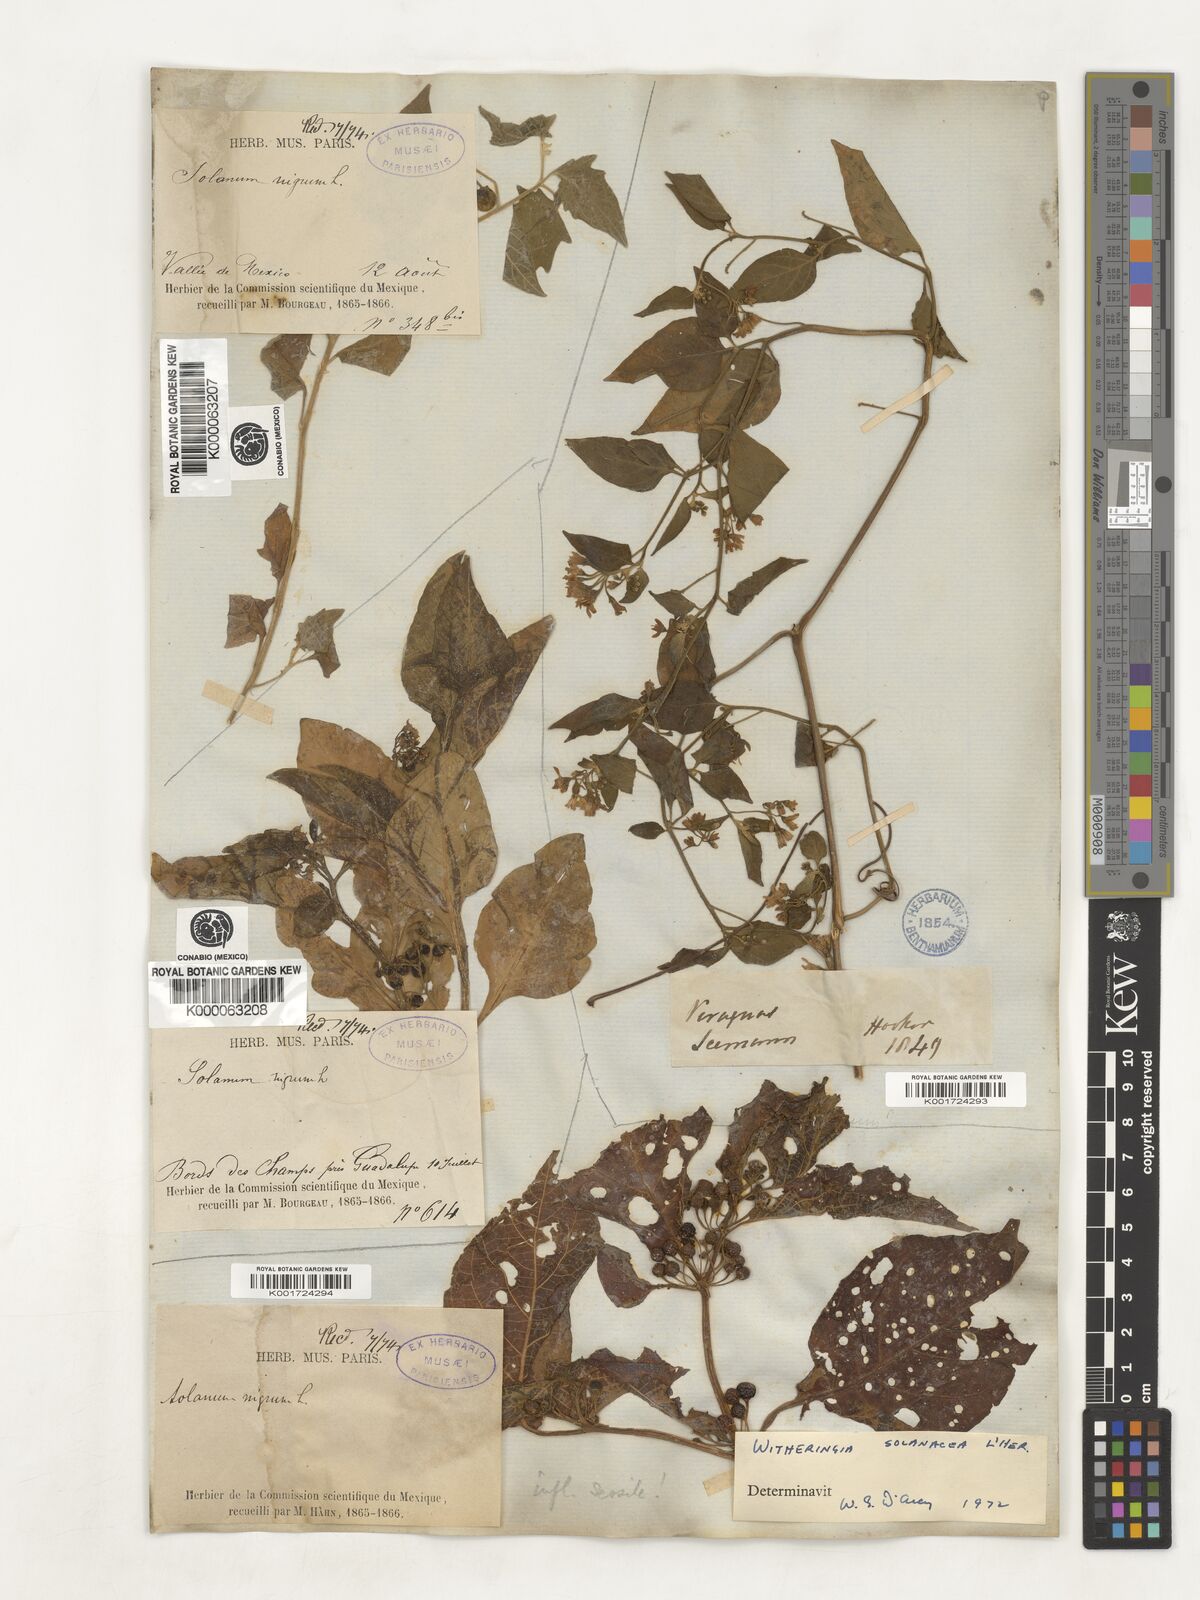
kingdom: Plantae
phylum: Tracheophyta
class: Magnoliopsida
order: Solanales
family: Solanaceae
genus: Witheringia
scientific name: Witheringia
